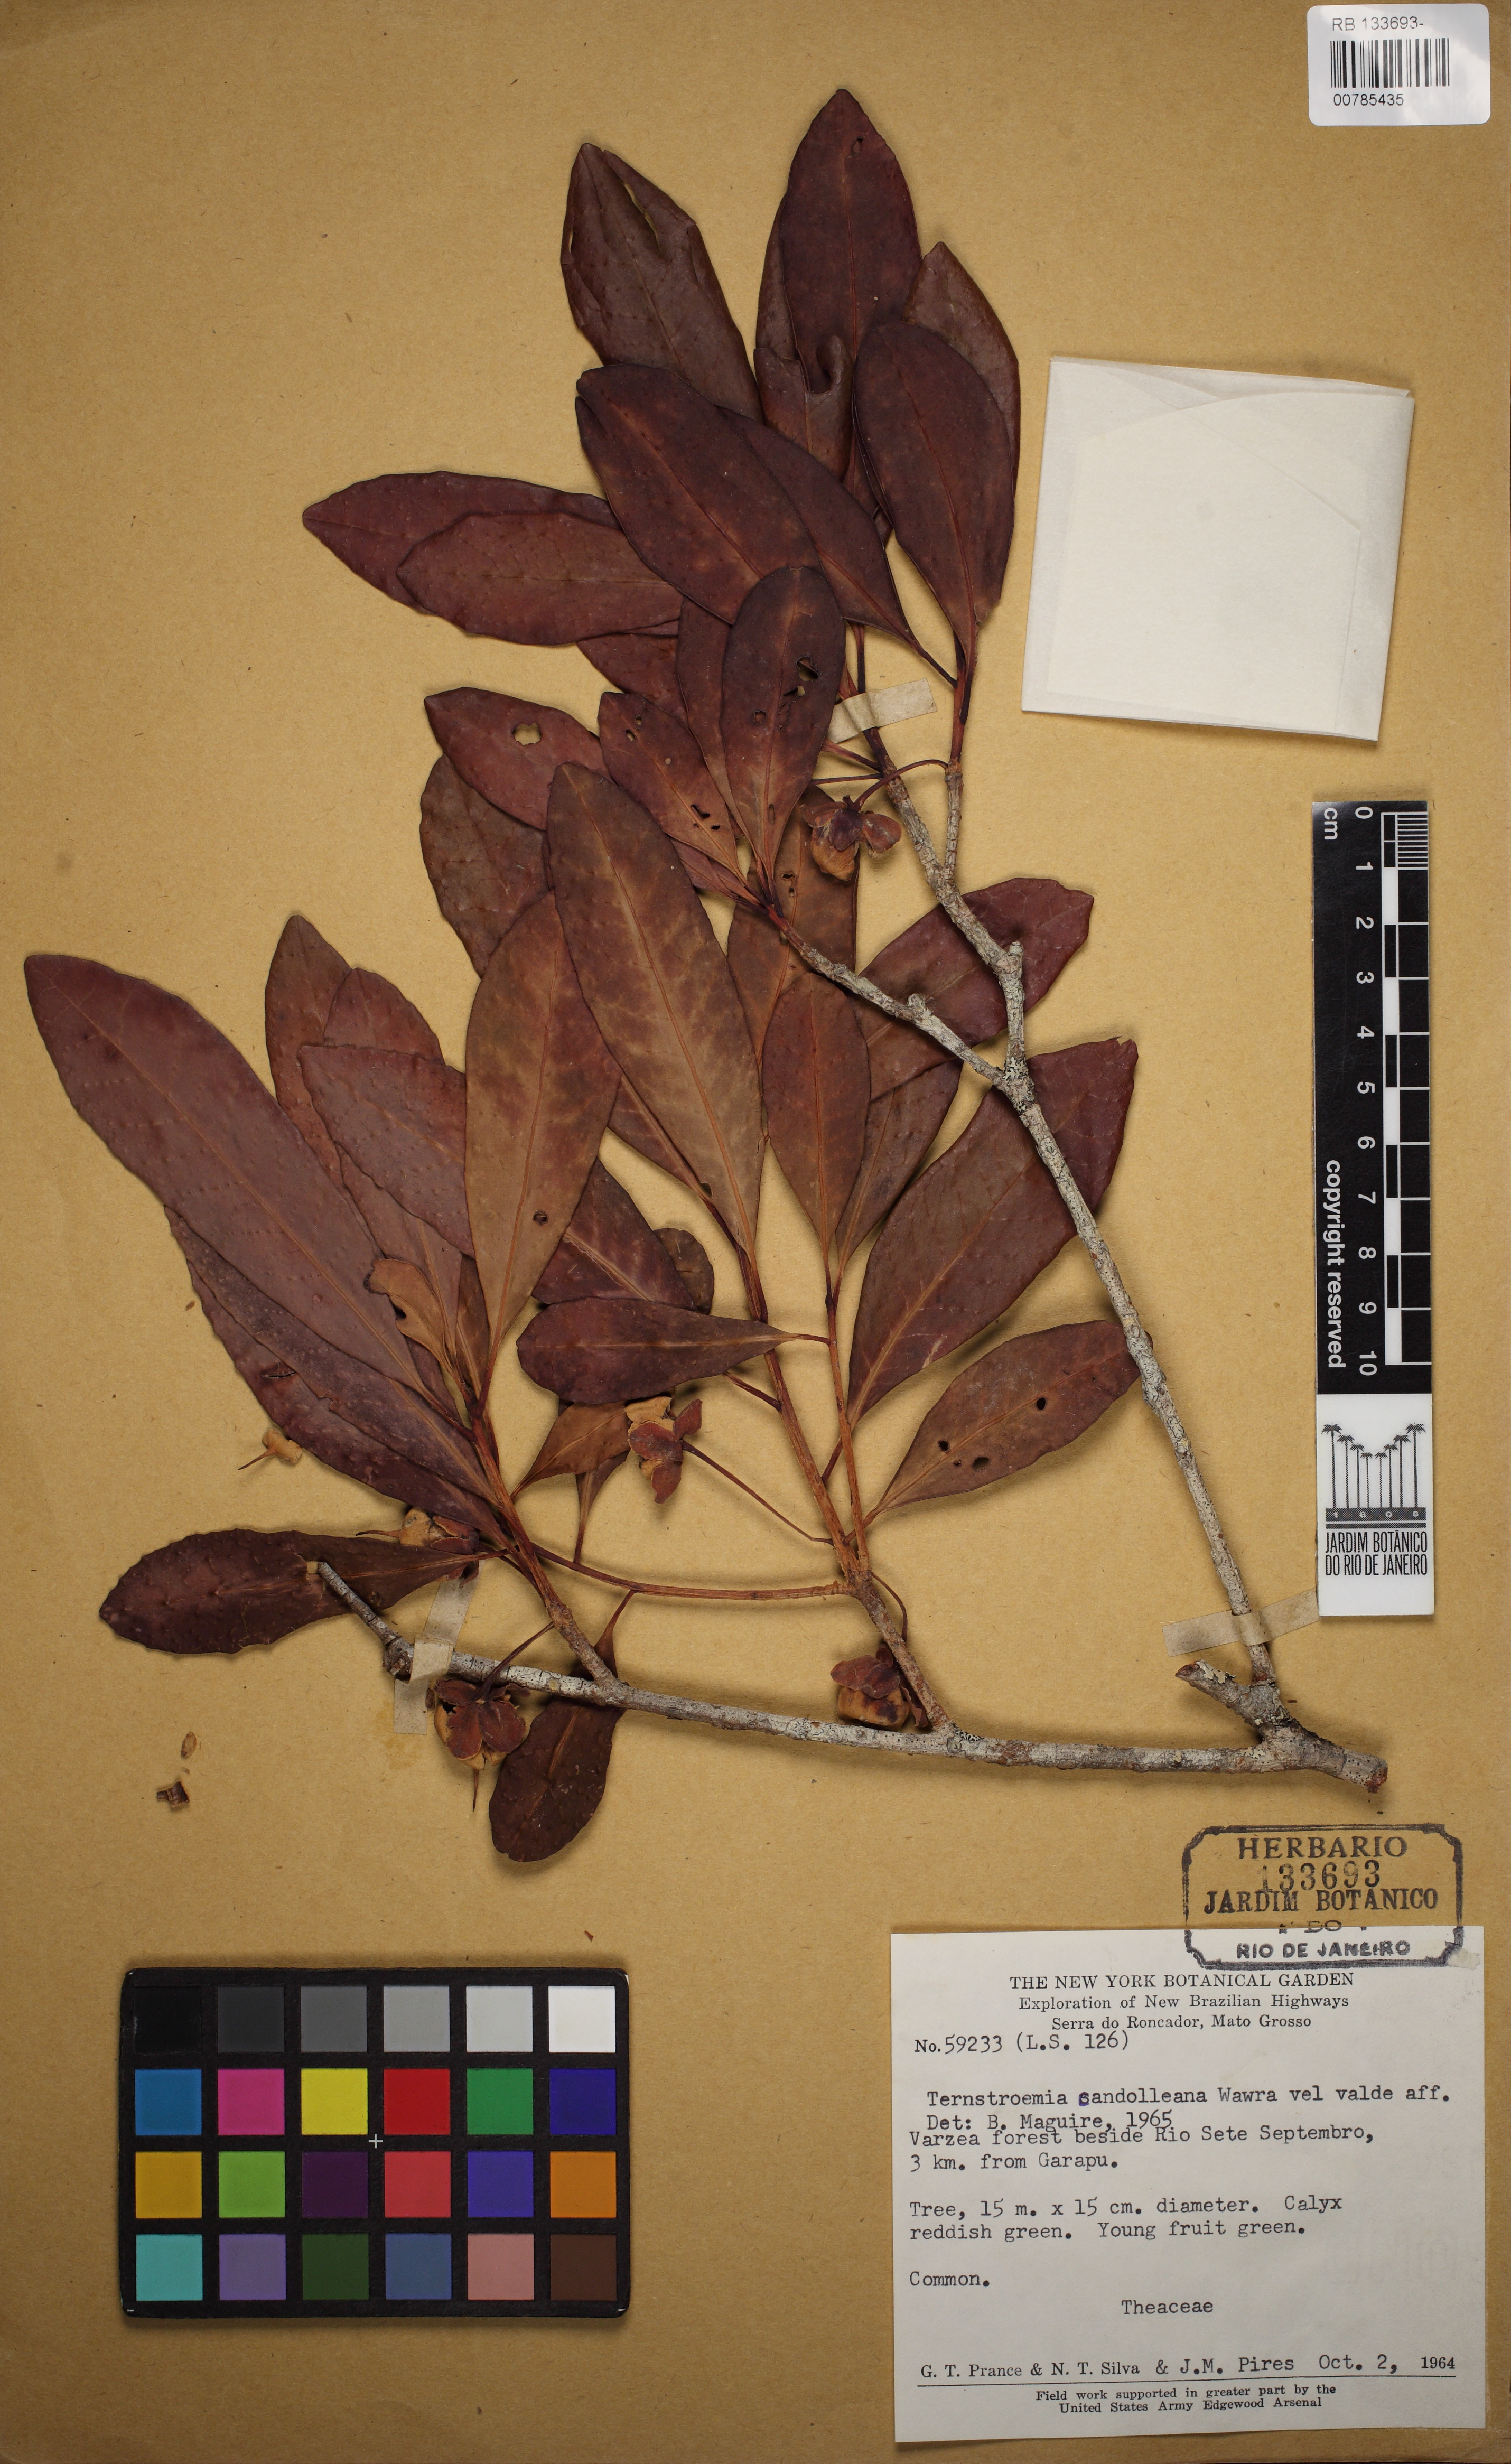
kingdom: Plantae
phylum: Tracheophyta
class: Magnoliopsida
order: Ericales
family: Pentaphylacaceae
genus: Ternstroemia
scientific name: Ternstroemia candolleana
